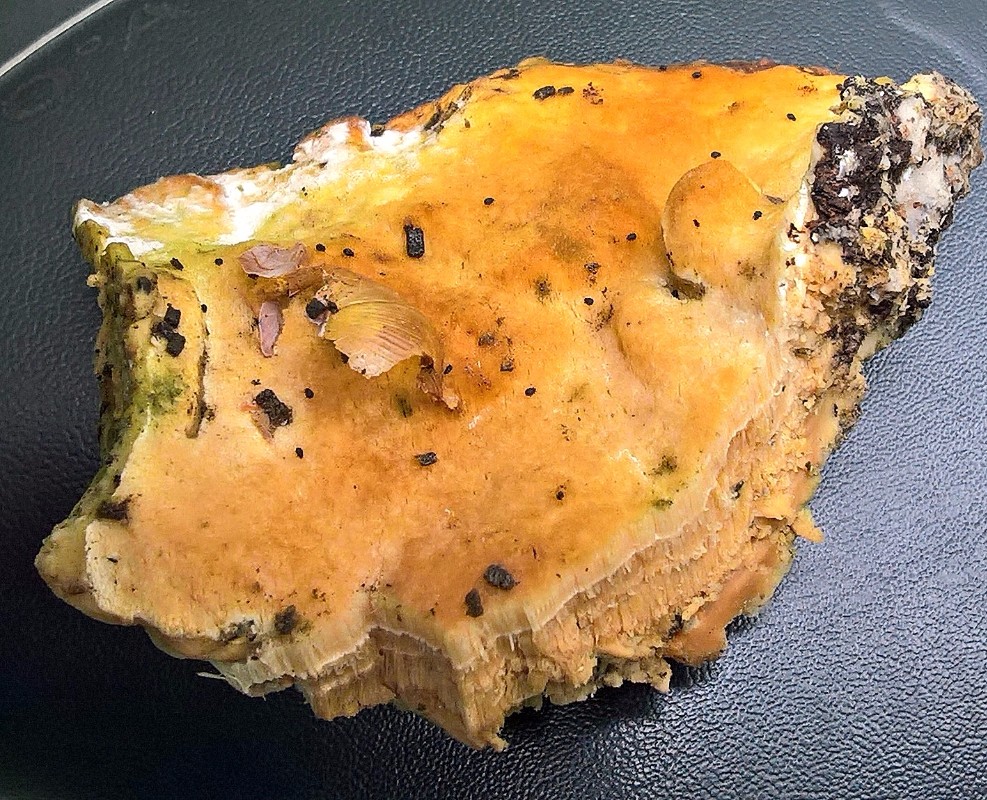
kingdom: Fungi
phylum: Basidiomycota
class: Agaricomycetes
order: Hymenochaetales
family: Oxyporaceae
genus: Oxyporus
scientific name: Oxyporus populinus
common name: sammenvokset trylleporesvamp
